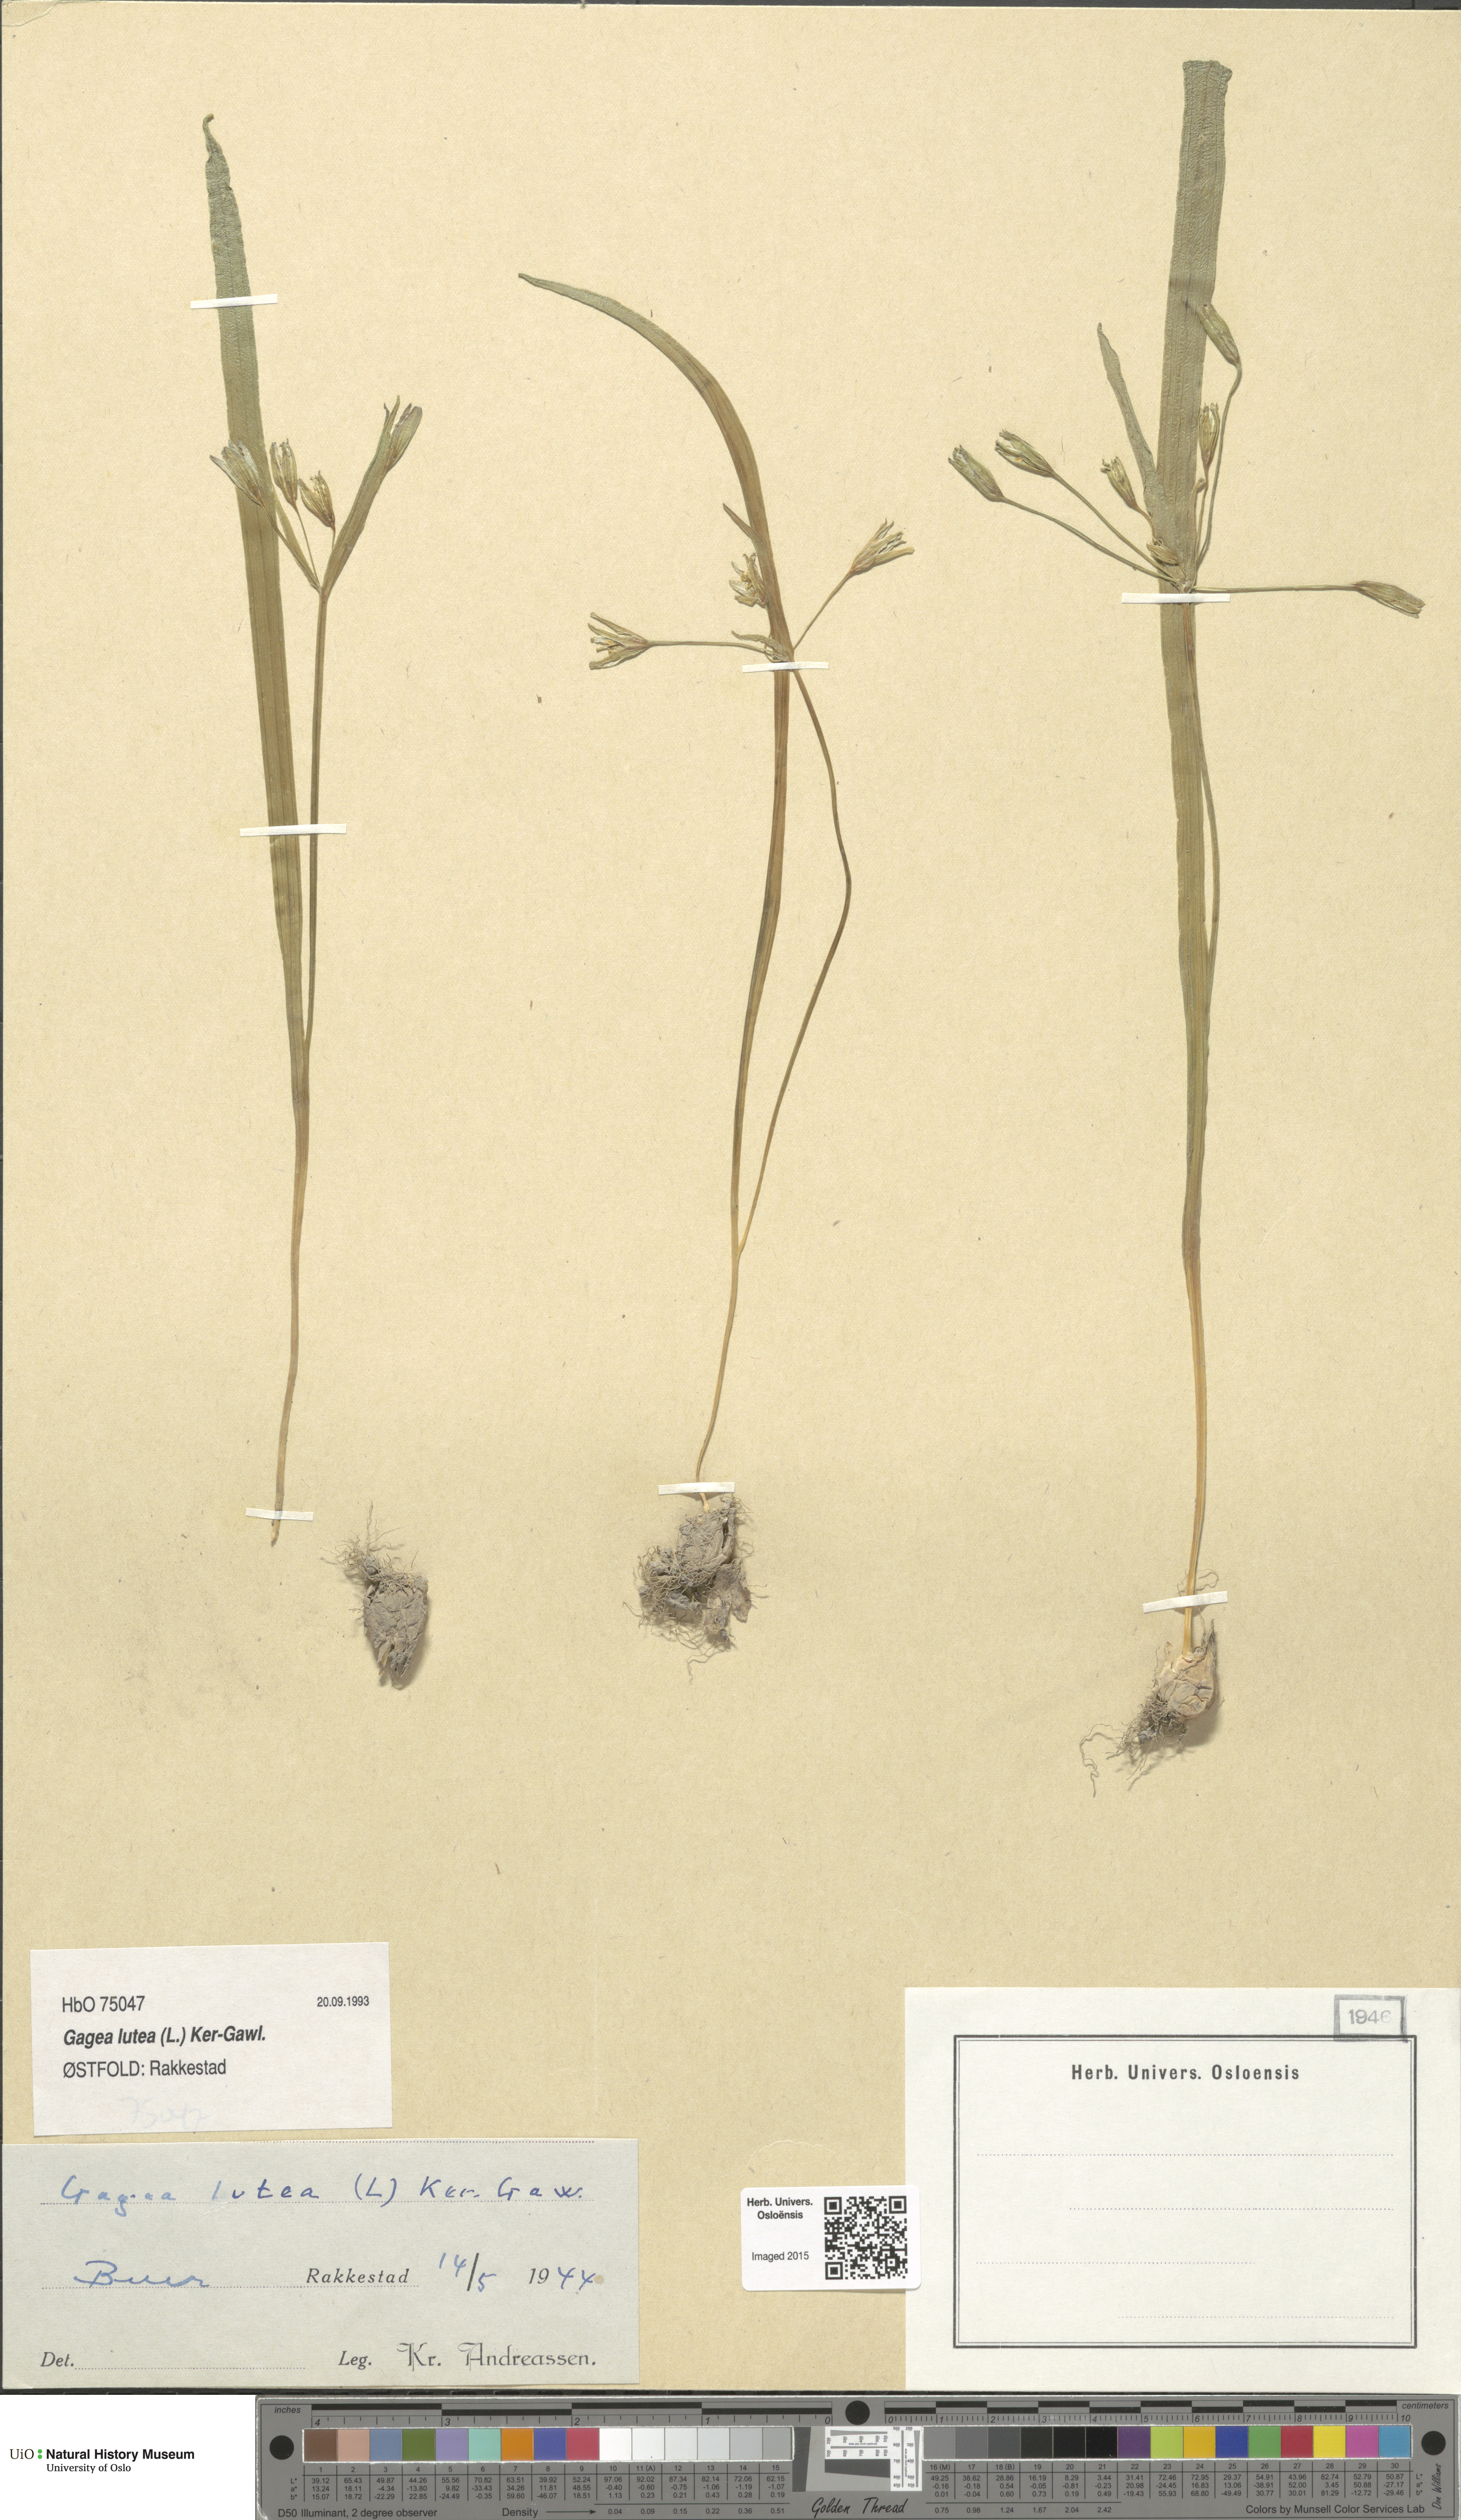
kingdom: Plantae
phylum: Tracheophyta
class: Liliopsida
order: Liliales
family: Liliaceae
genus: Gagea
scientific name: Gagea lutea
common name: Yellow star-of-bethlehem
